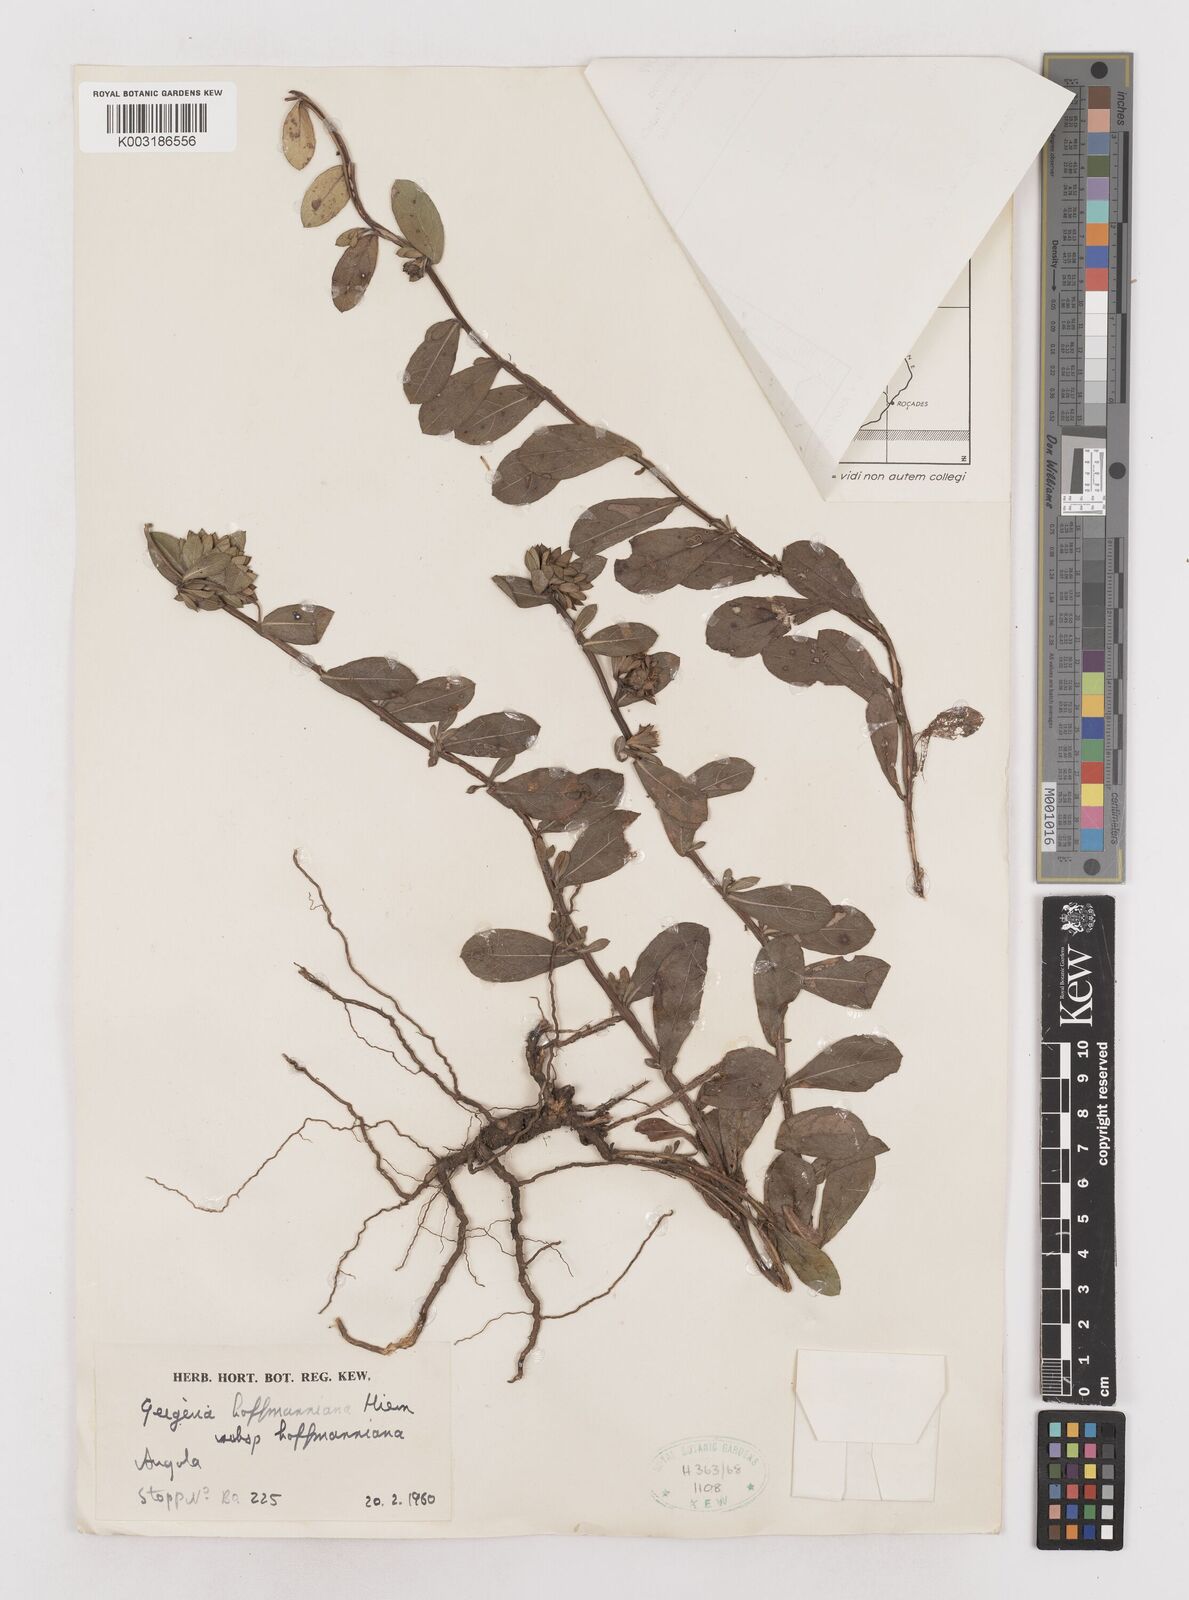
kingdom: Plantae
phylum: Tracheophyta
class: Magnoliopsida
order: Asterales
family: Asteraceae
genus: Geigeria
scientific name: Geigeria hoffmanniana
